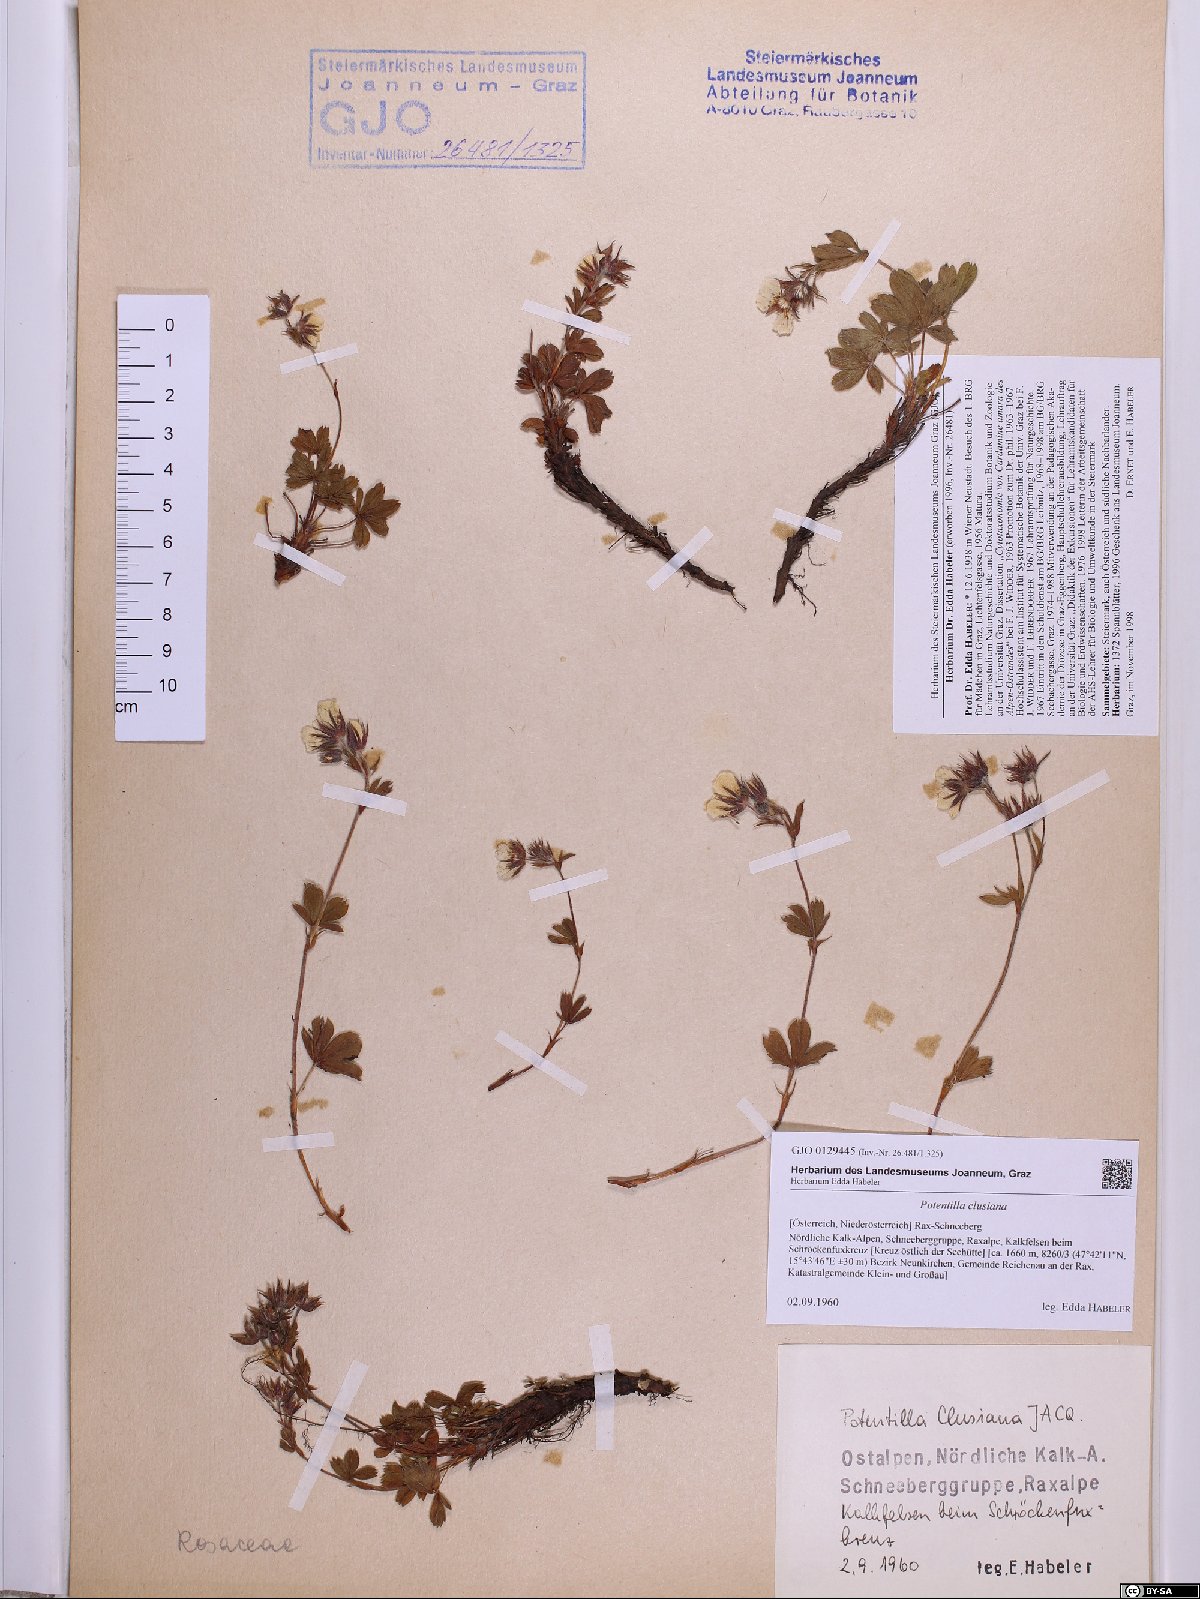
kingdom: Plantae
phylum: Tracheophyta
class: Magnoliopsida
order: Rosales
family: Rosaceae
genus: Potentilla
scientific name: Potentilla clusiana
